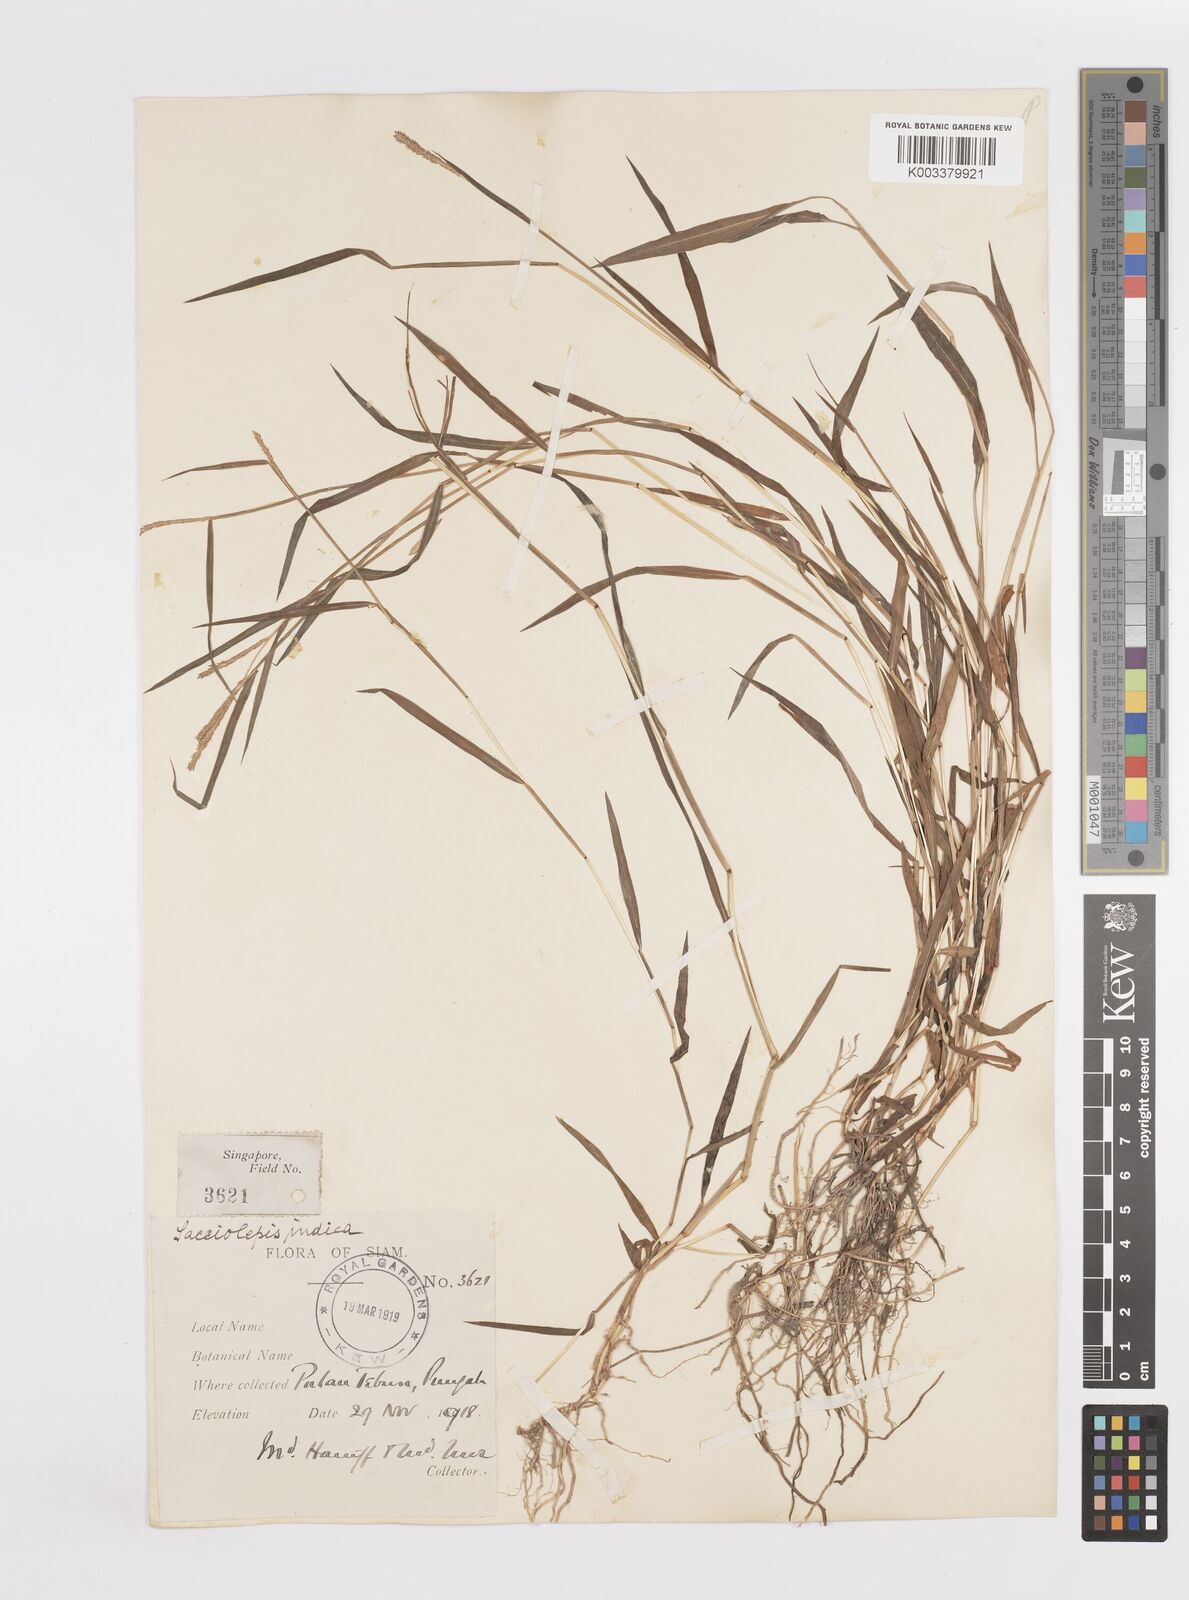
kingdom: Plantae
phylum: Tracheophyta
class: Liliopsida
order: Poales
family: Poaceae
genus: Sacciolepis
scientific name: Sacciolepis indica
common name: Glenwoodgrass
